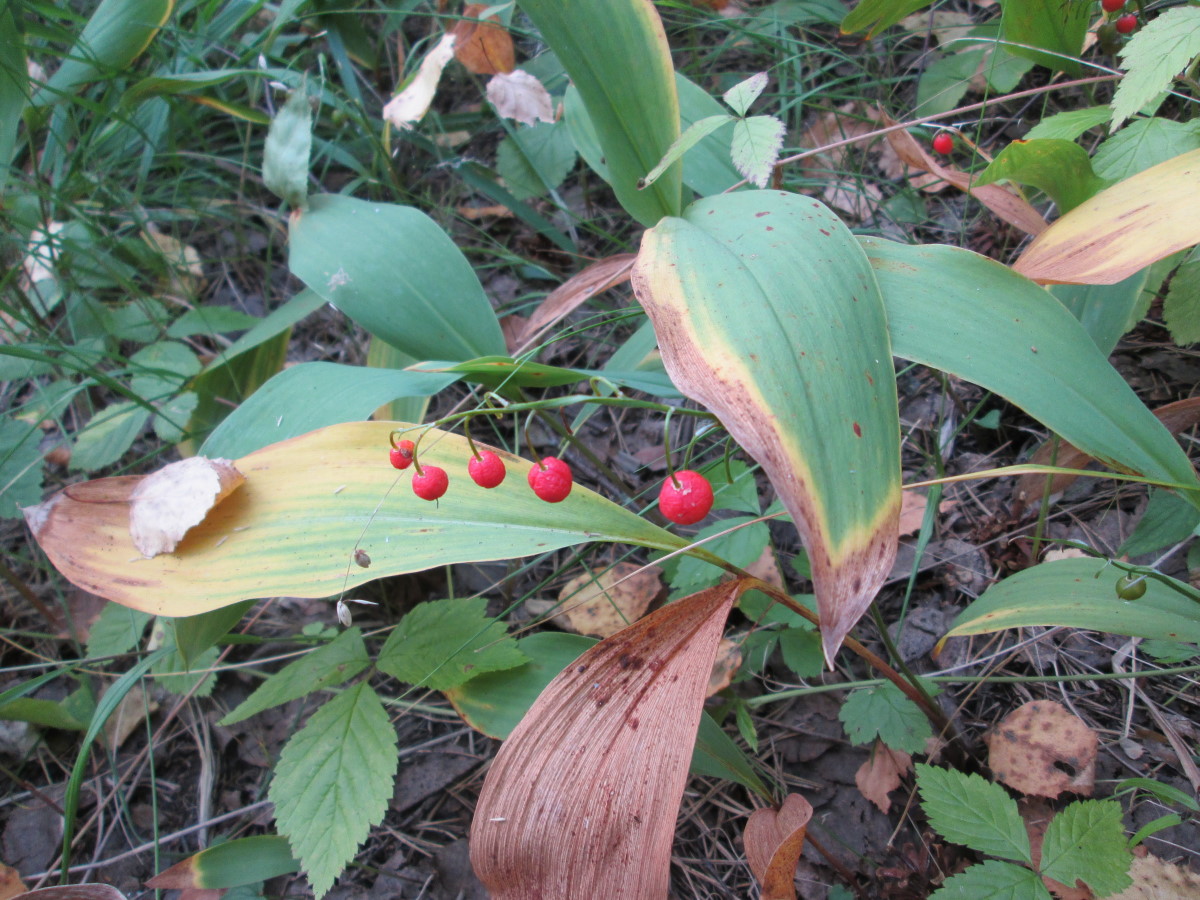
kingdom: Plantae
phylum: Tracheophyta
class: Liliopsida
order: Asparagales
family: Asparagaceae
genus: Convallaria
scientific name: Convallaria majalis
